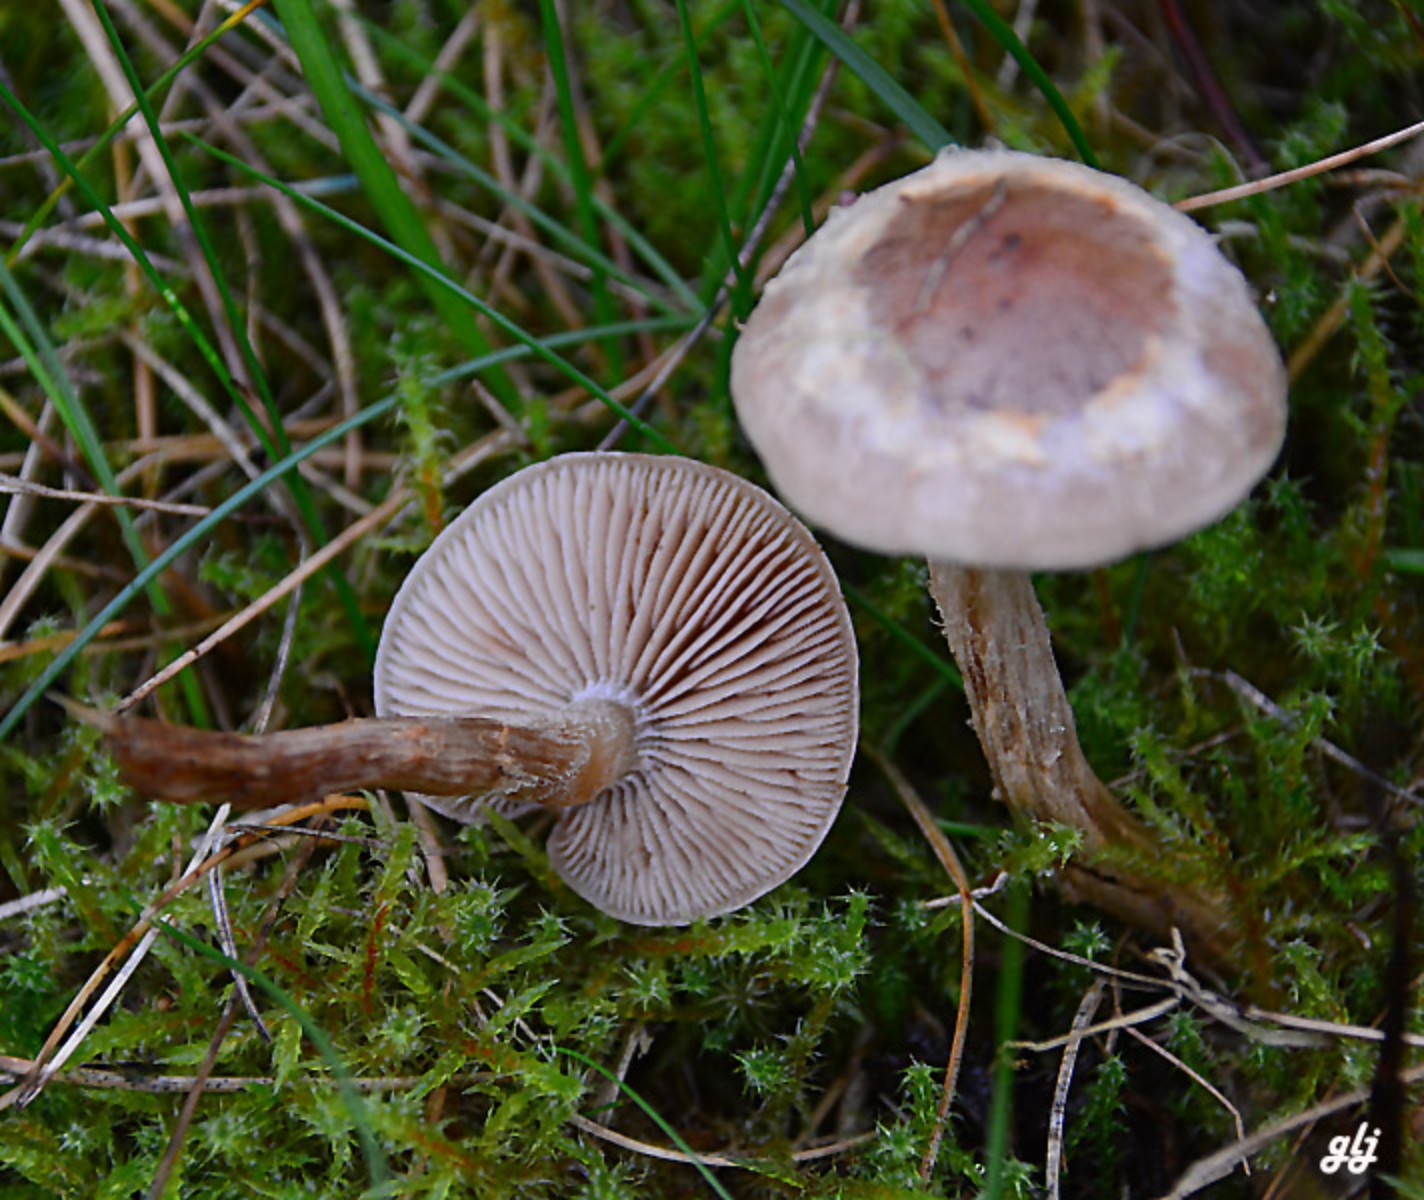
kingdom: Fungi
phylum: Basidiomycota
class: Agaricomycetes
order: Agaricales
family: Hymenogastraceae
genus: Hebeloma
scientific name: Hebeloma mesophaeum
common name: lerbrun tåreblad
